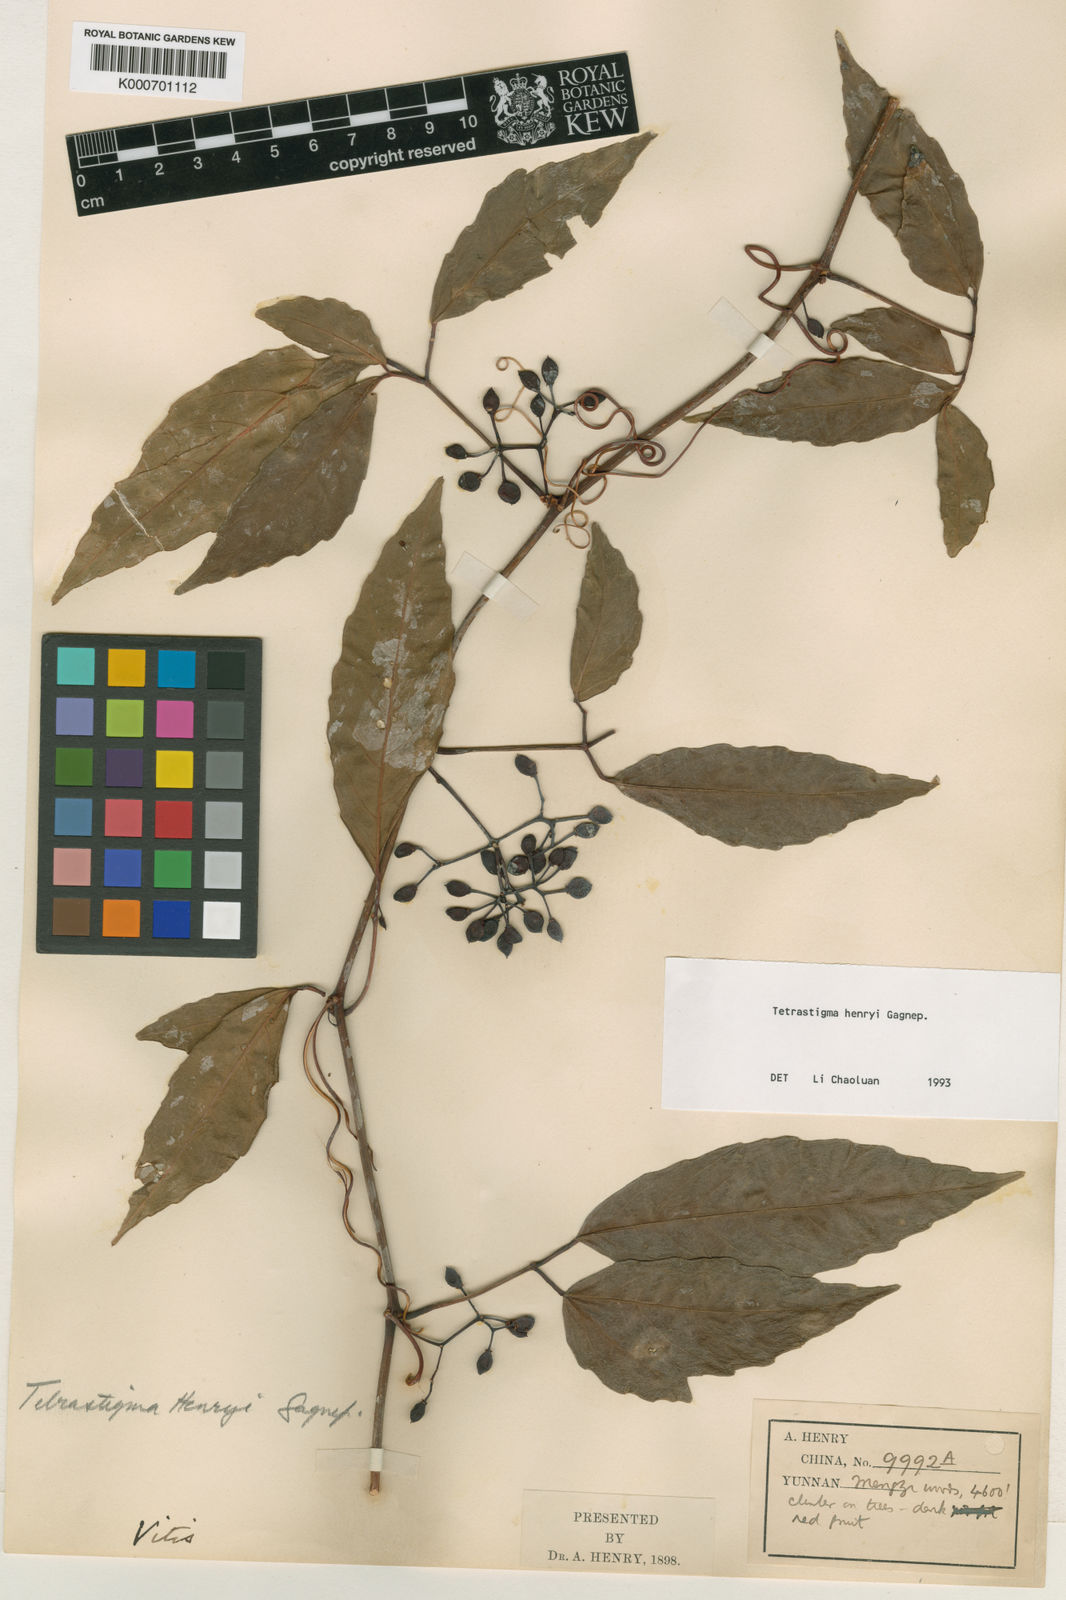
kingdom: Plantae
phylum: Tracheophyta
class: Magnoliopsida
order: Vitales
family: Vitaceae
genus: Tetrastigma
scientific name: Tetrastigma dubium
